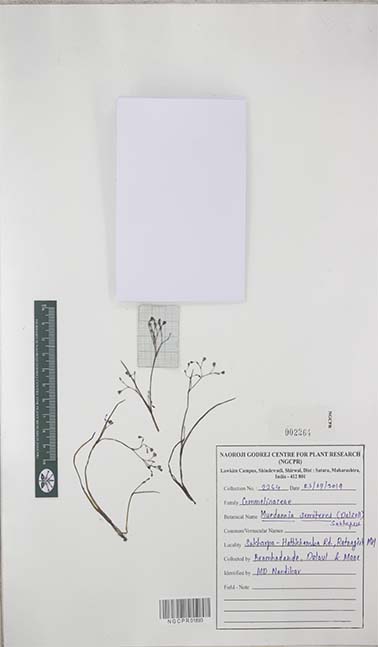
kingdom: Plantae
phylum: Tracheophyta
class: Liliopsida
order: Commelinales
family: Commelinaceae
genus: Murdannia
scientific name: Murdannia semiteres
